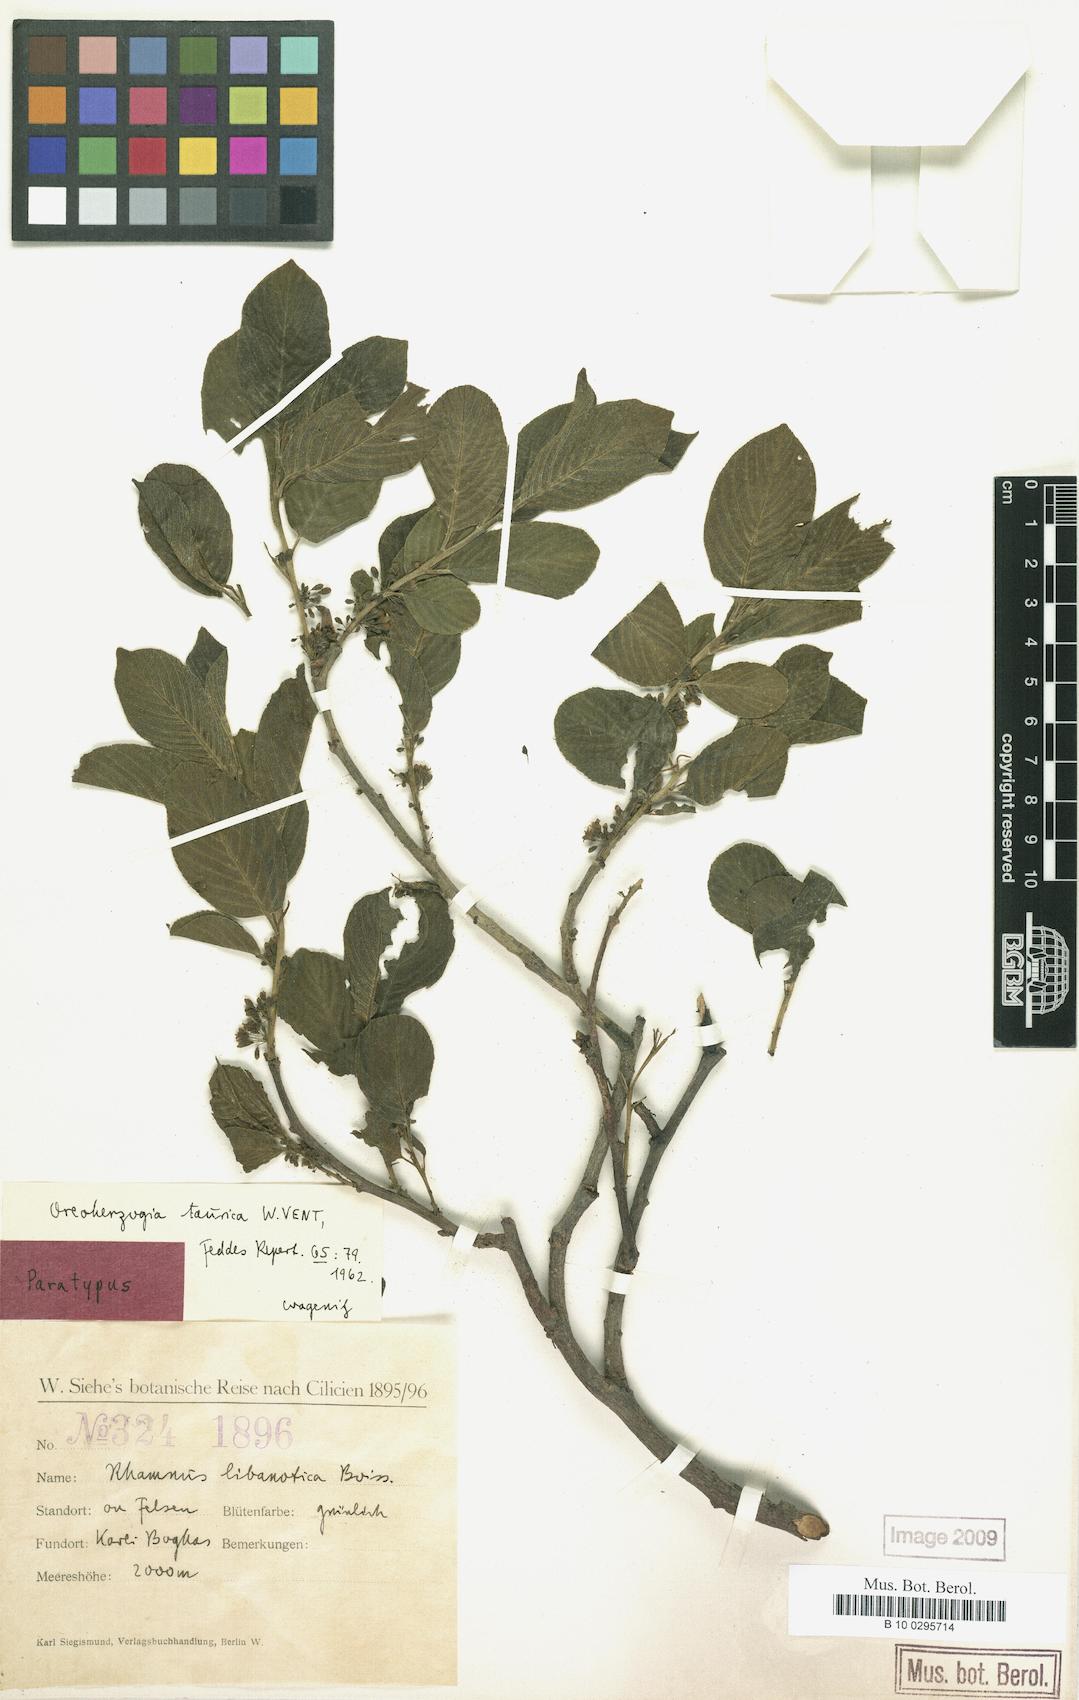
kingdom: Plantae
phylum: Tracheophyta
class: Magnoliopsida
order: Rosales
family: Rhamnaceae
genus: Atadinus
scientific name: Atadinus libanoticus
